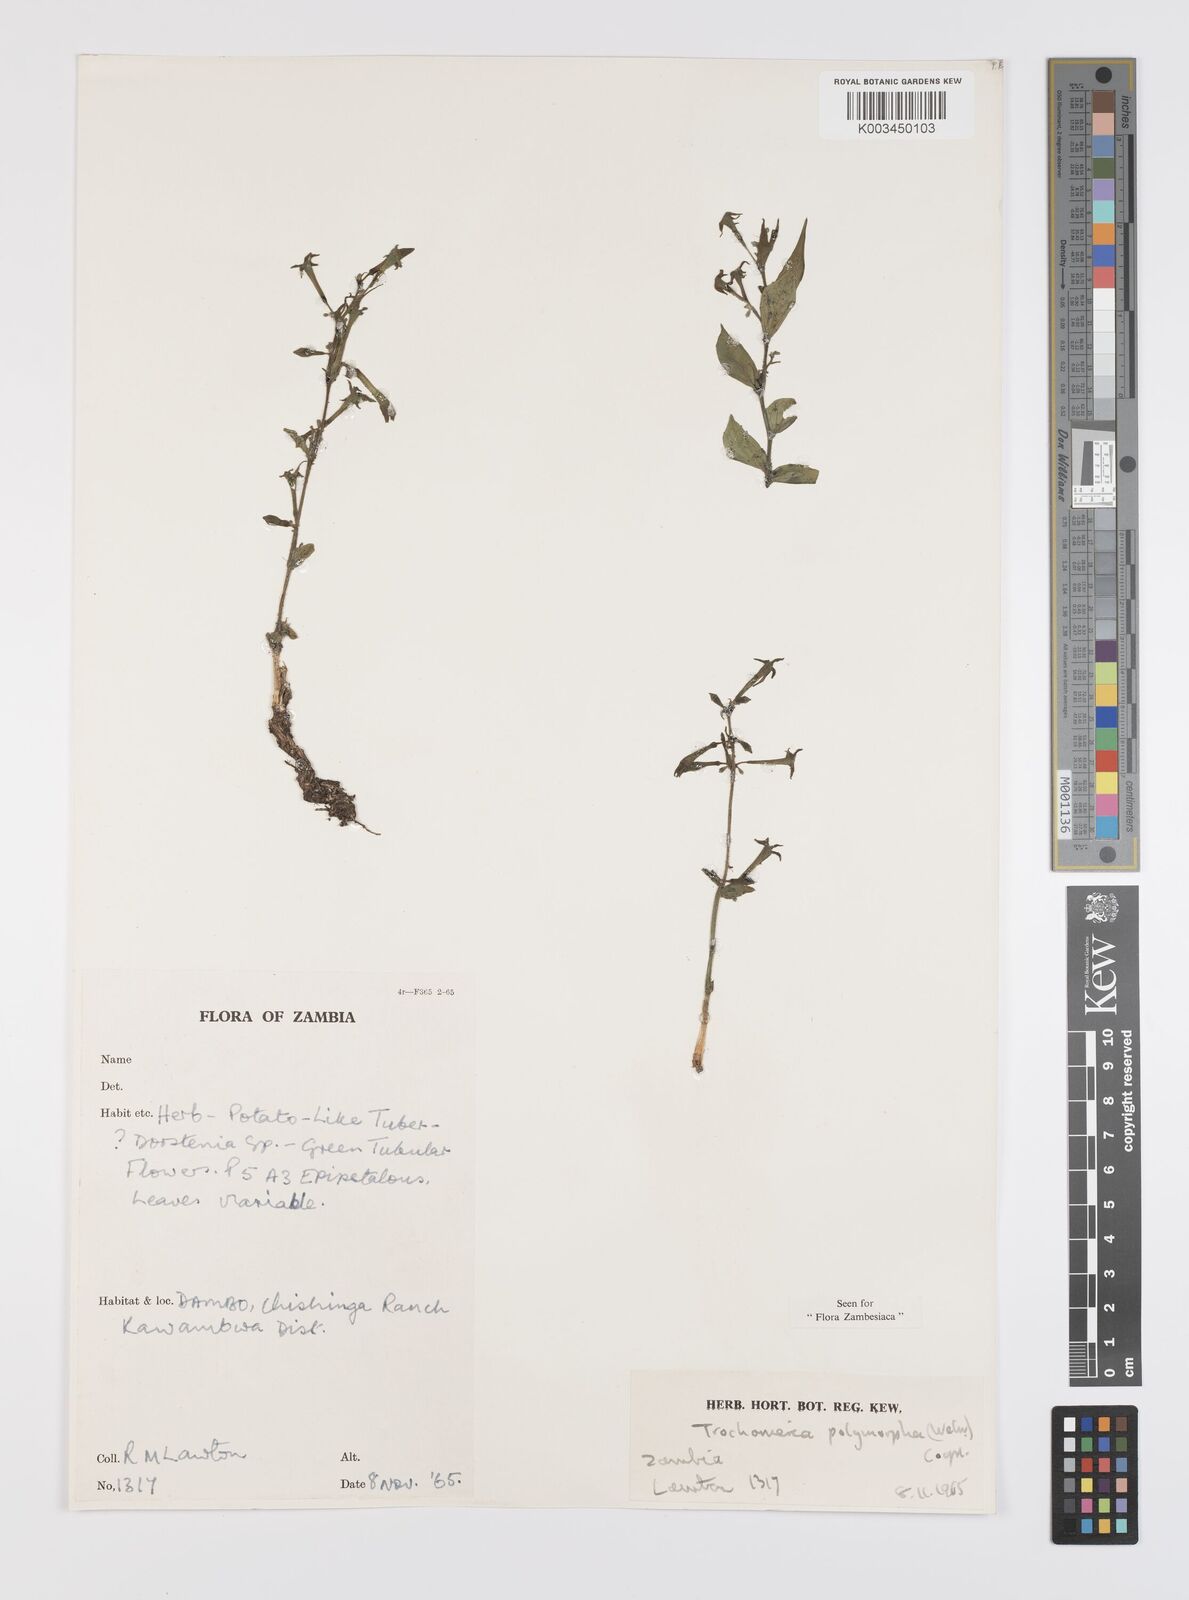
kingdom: Plantae
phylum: Tracheophyta
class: Magnoliopsida
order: Cucurbitales
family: Cucurbitaceae
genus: Trochomeria
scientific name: Trochomeria polymorpha
